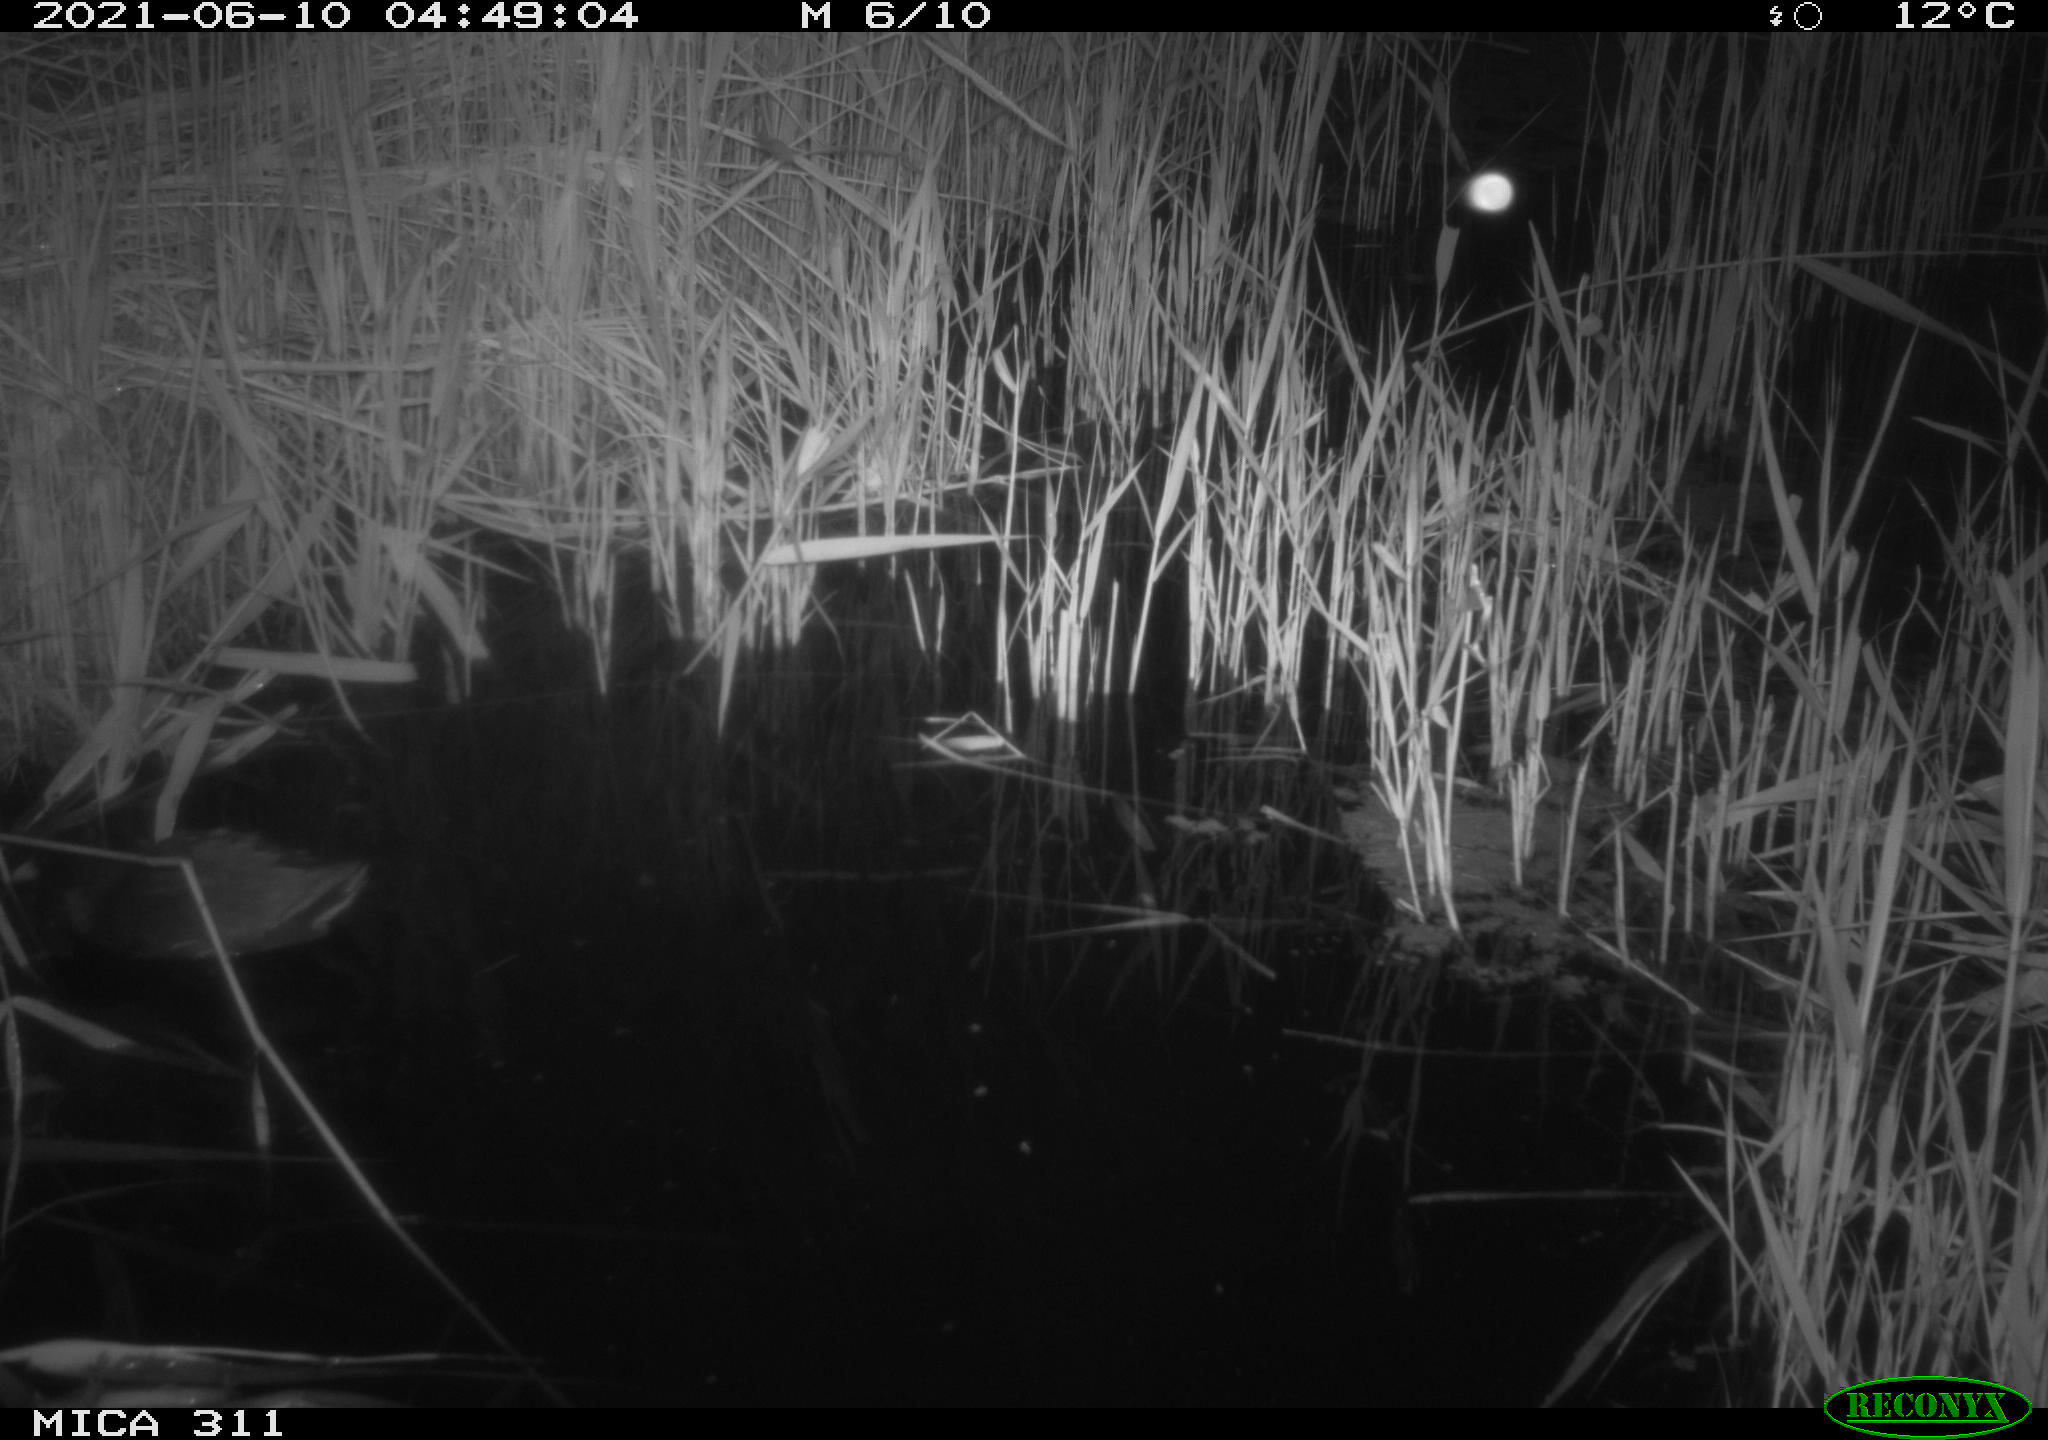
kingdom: Animalia
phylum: Chordata
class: Aves
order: Gruiformes
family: Rallidae
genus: Gallinula
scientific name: Gallinula chloropus
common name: Common moorhen
